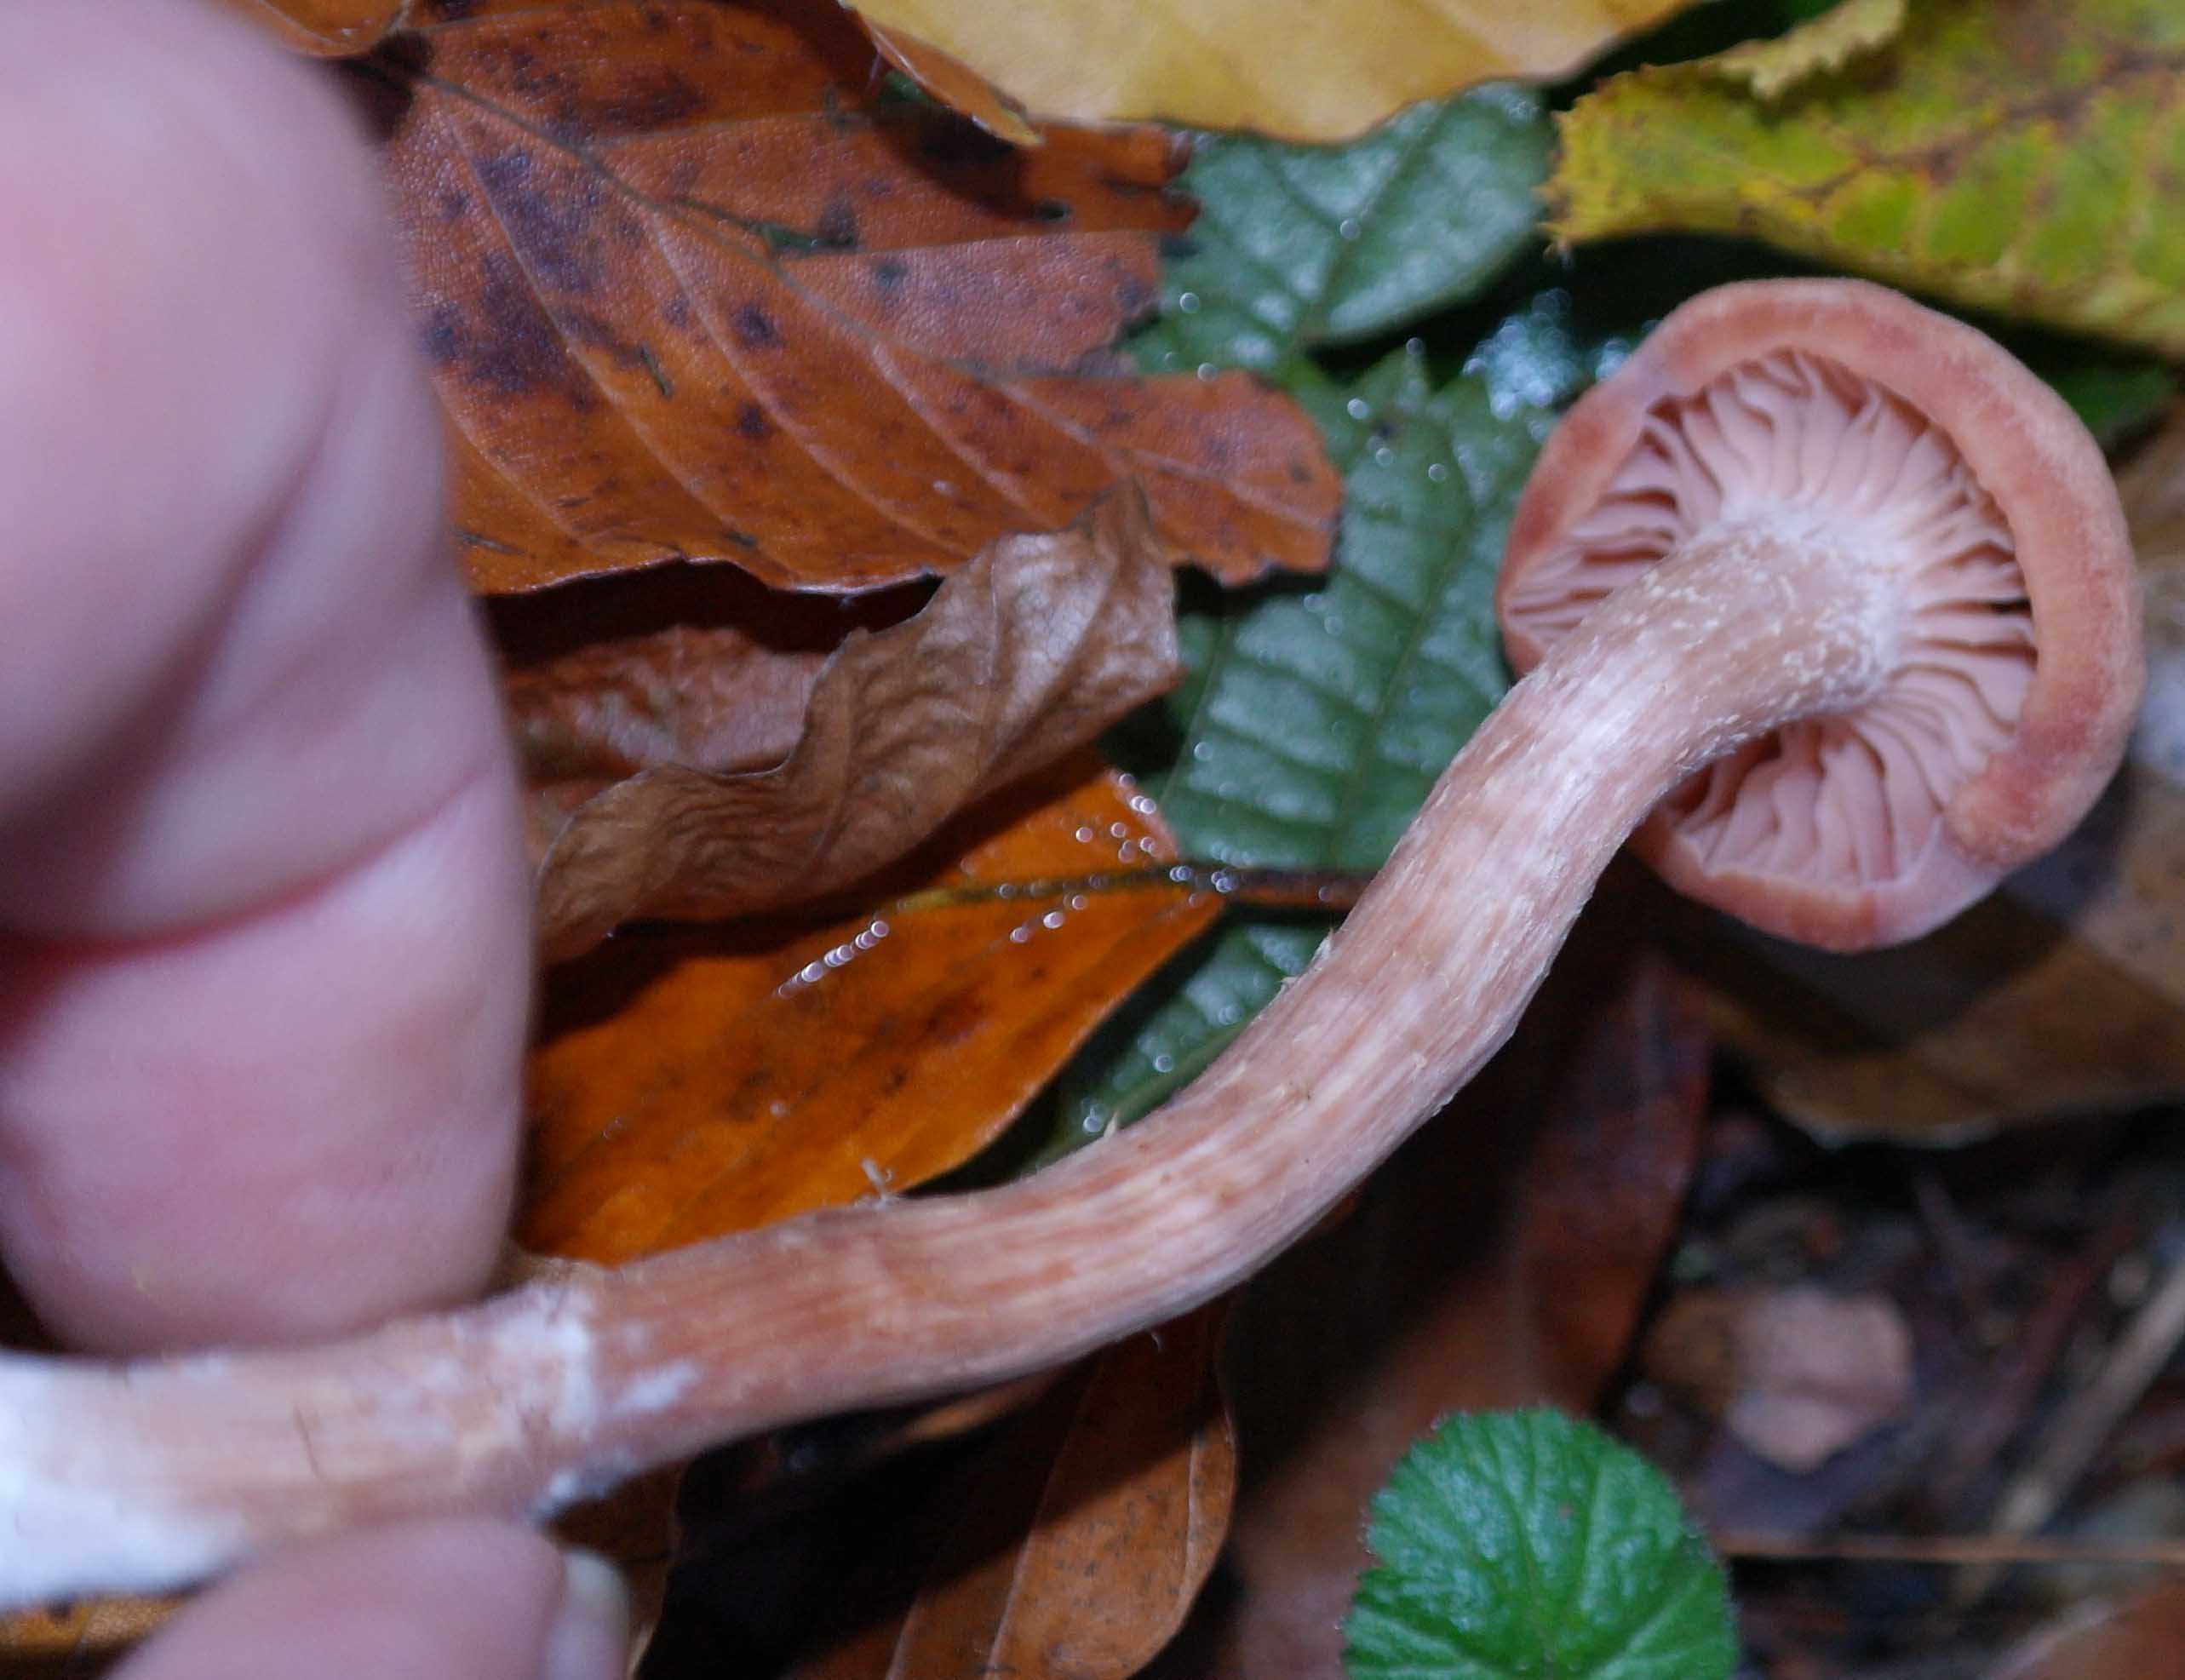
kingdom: Fungi
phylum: Basidiomycota
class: Agaricomycetes
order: Agaricales
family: Hydnangiaceae
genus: Laccaria
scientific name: Laccaria proxima
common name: stor ametysthat
